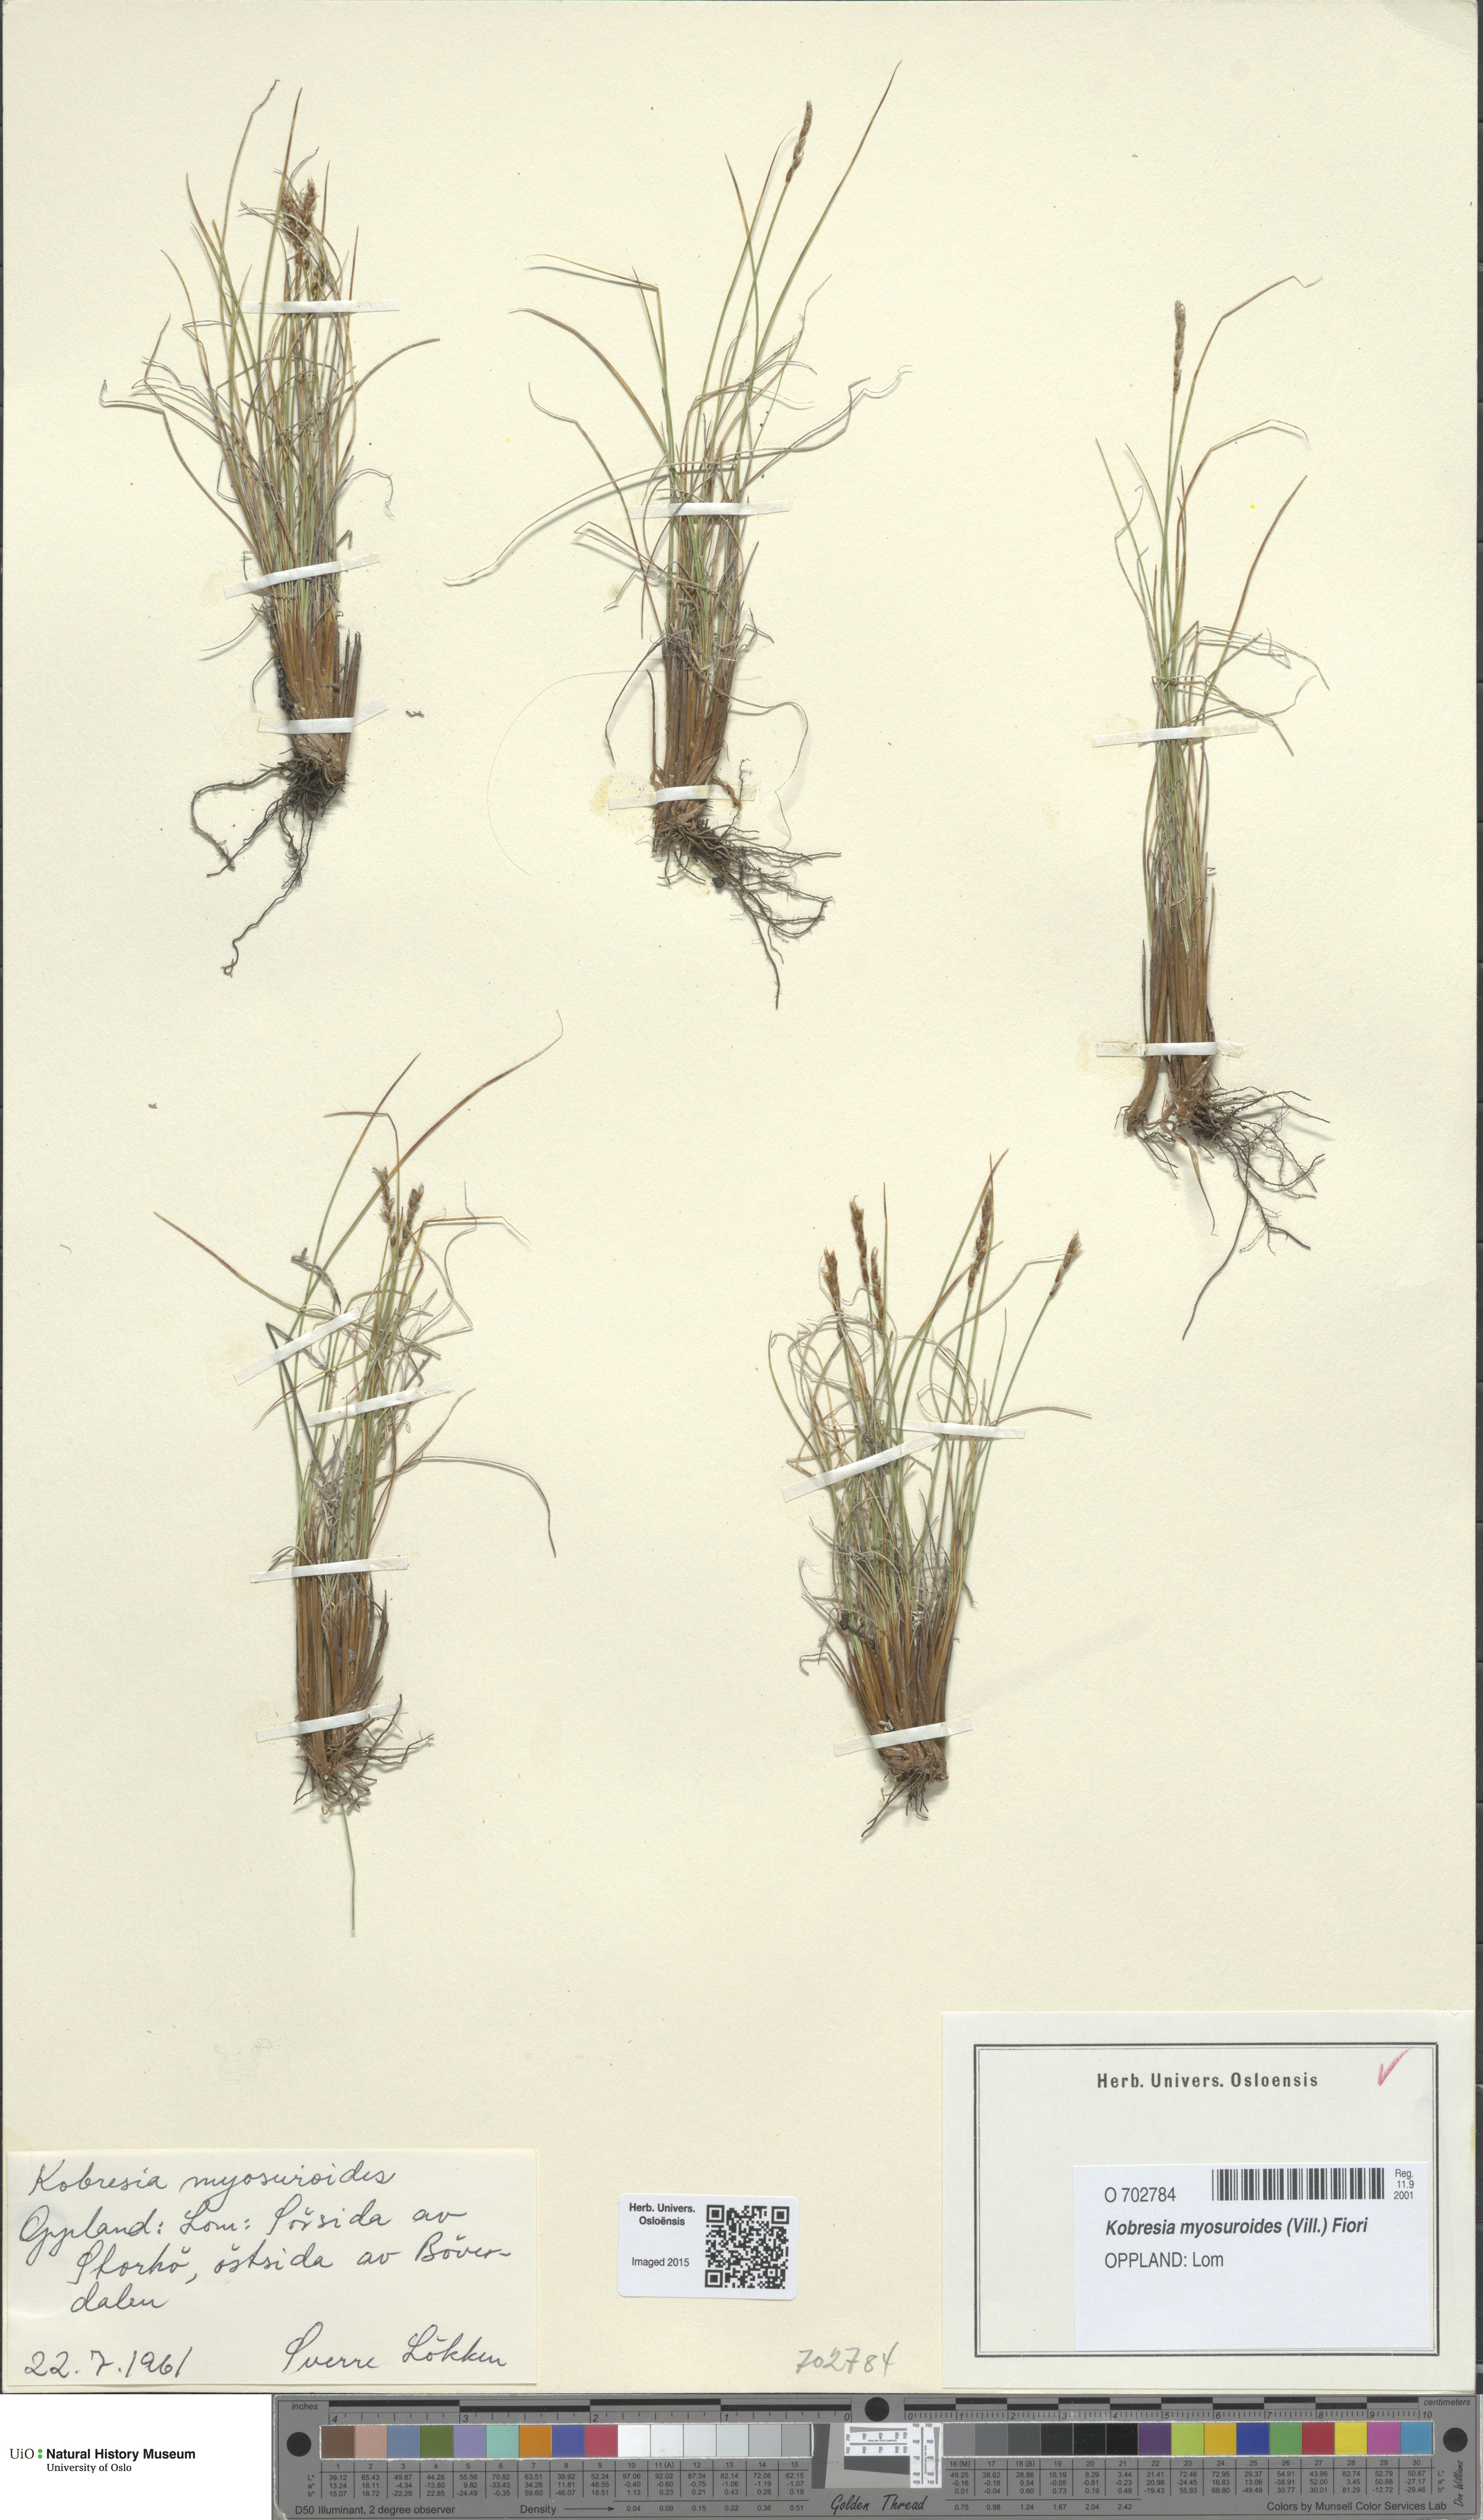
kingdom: Plantae
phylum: Tracheophyta
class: Liliopsida
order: Poales
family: Cyperaceae
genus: Carex
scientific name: Carex myosuroides
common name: Bellard's bog sedge
